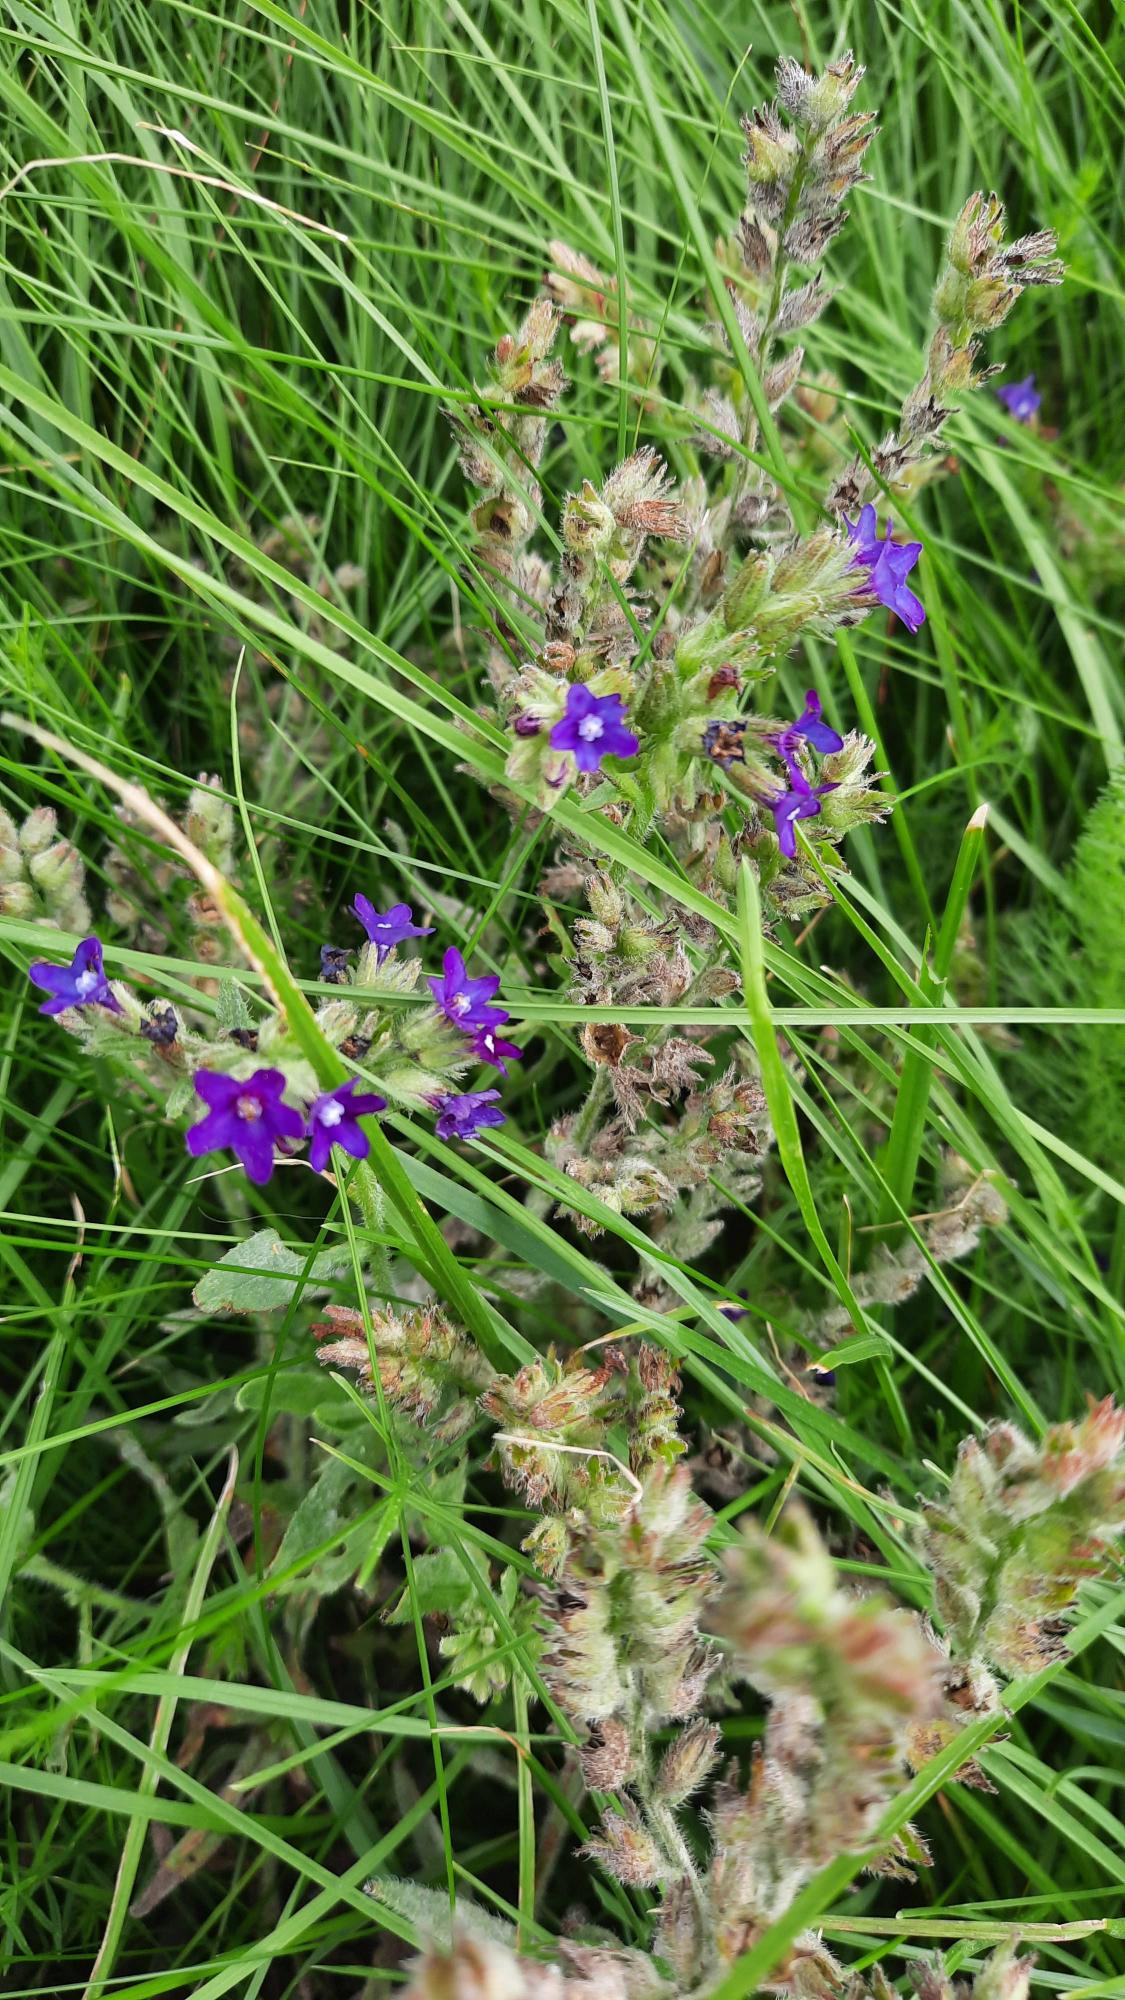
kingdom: Plantae
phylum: Tracheophyta
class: Magnoliopsida
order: Boraginales
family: Boraginaceae
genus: Anchusa
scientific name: Anchusa officinalis
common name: Læge-oksetunge
